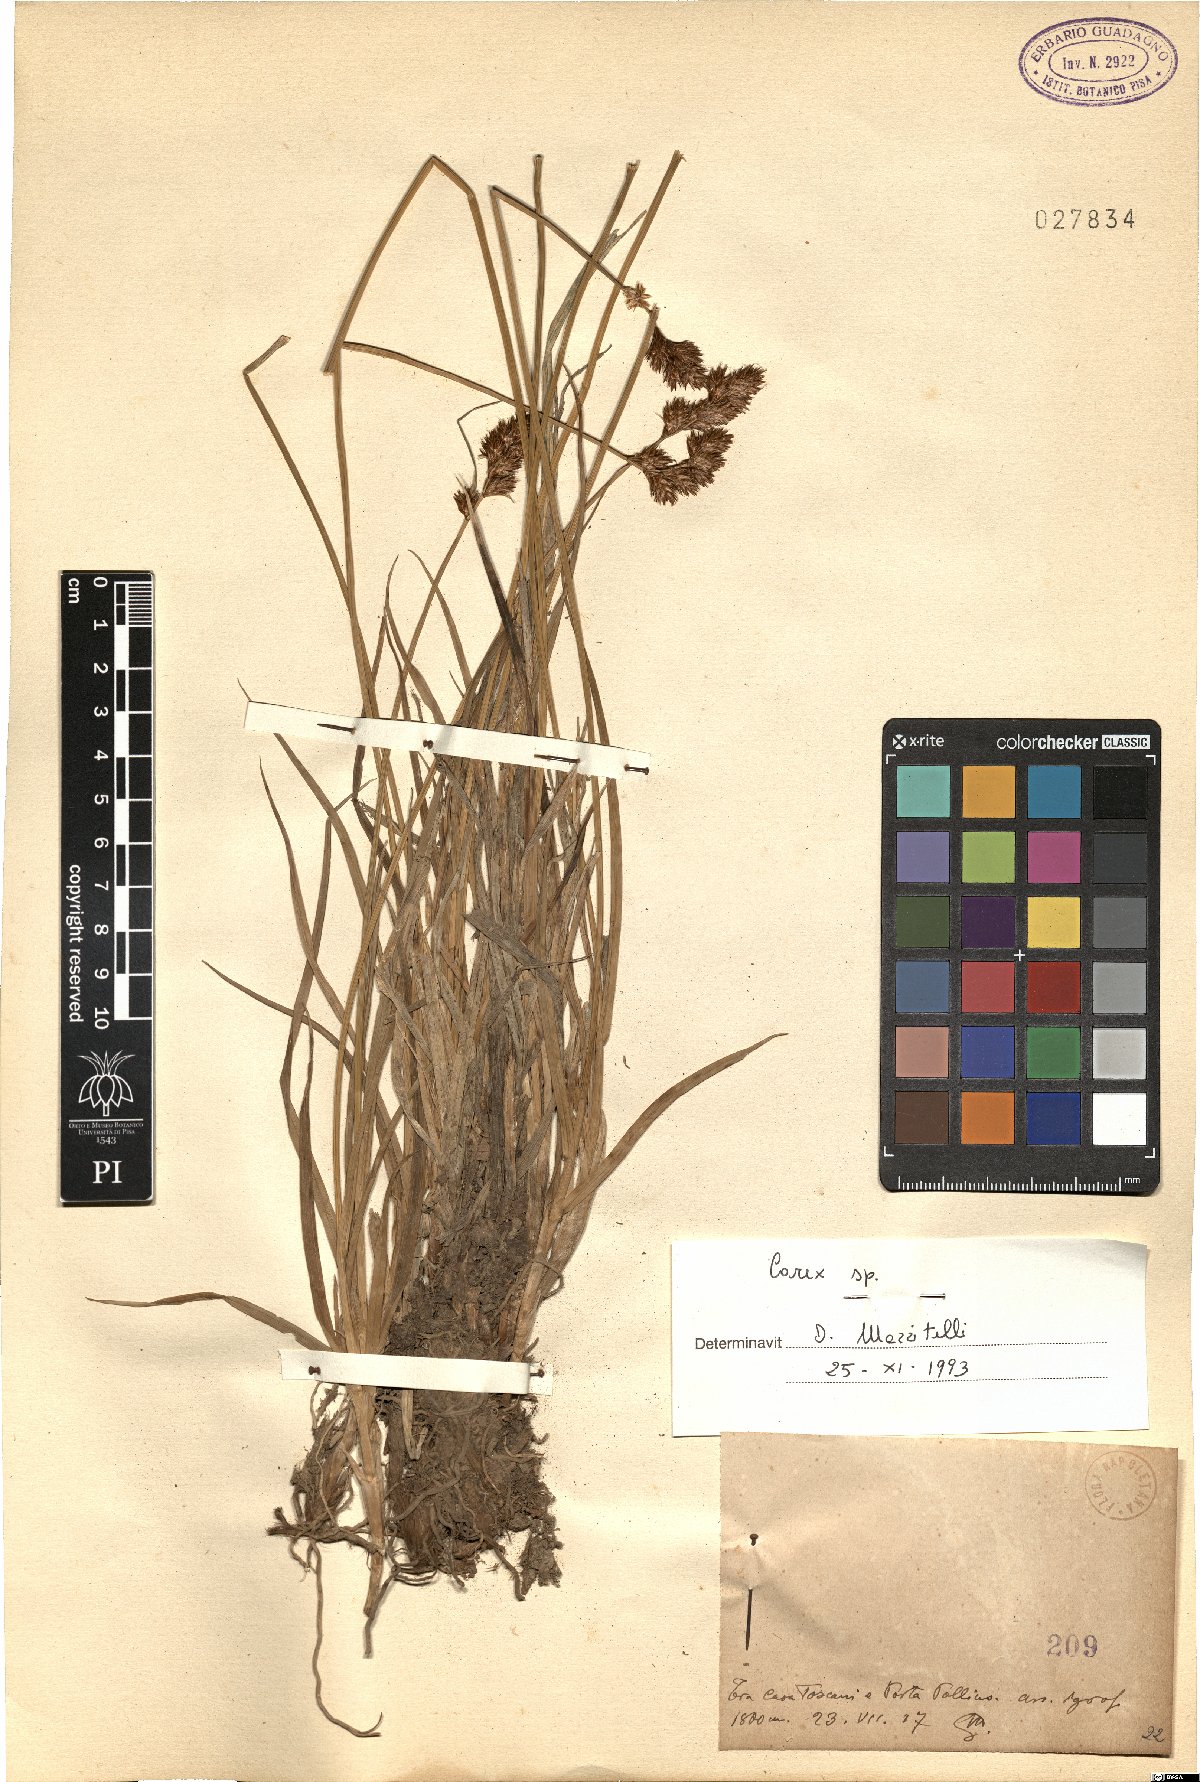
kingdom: Plantae
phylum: Tracheophyta
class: Liliopsida
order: Poales
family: Cyperaceae
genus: Carex
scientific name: Carex
